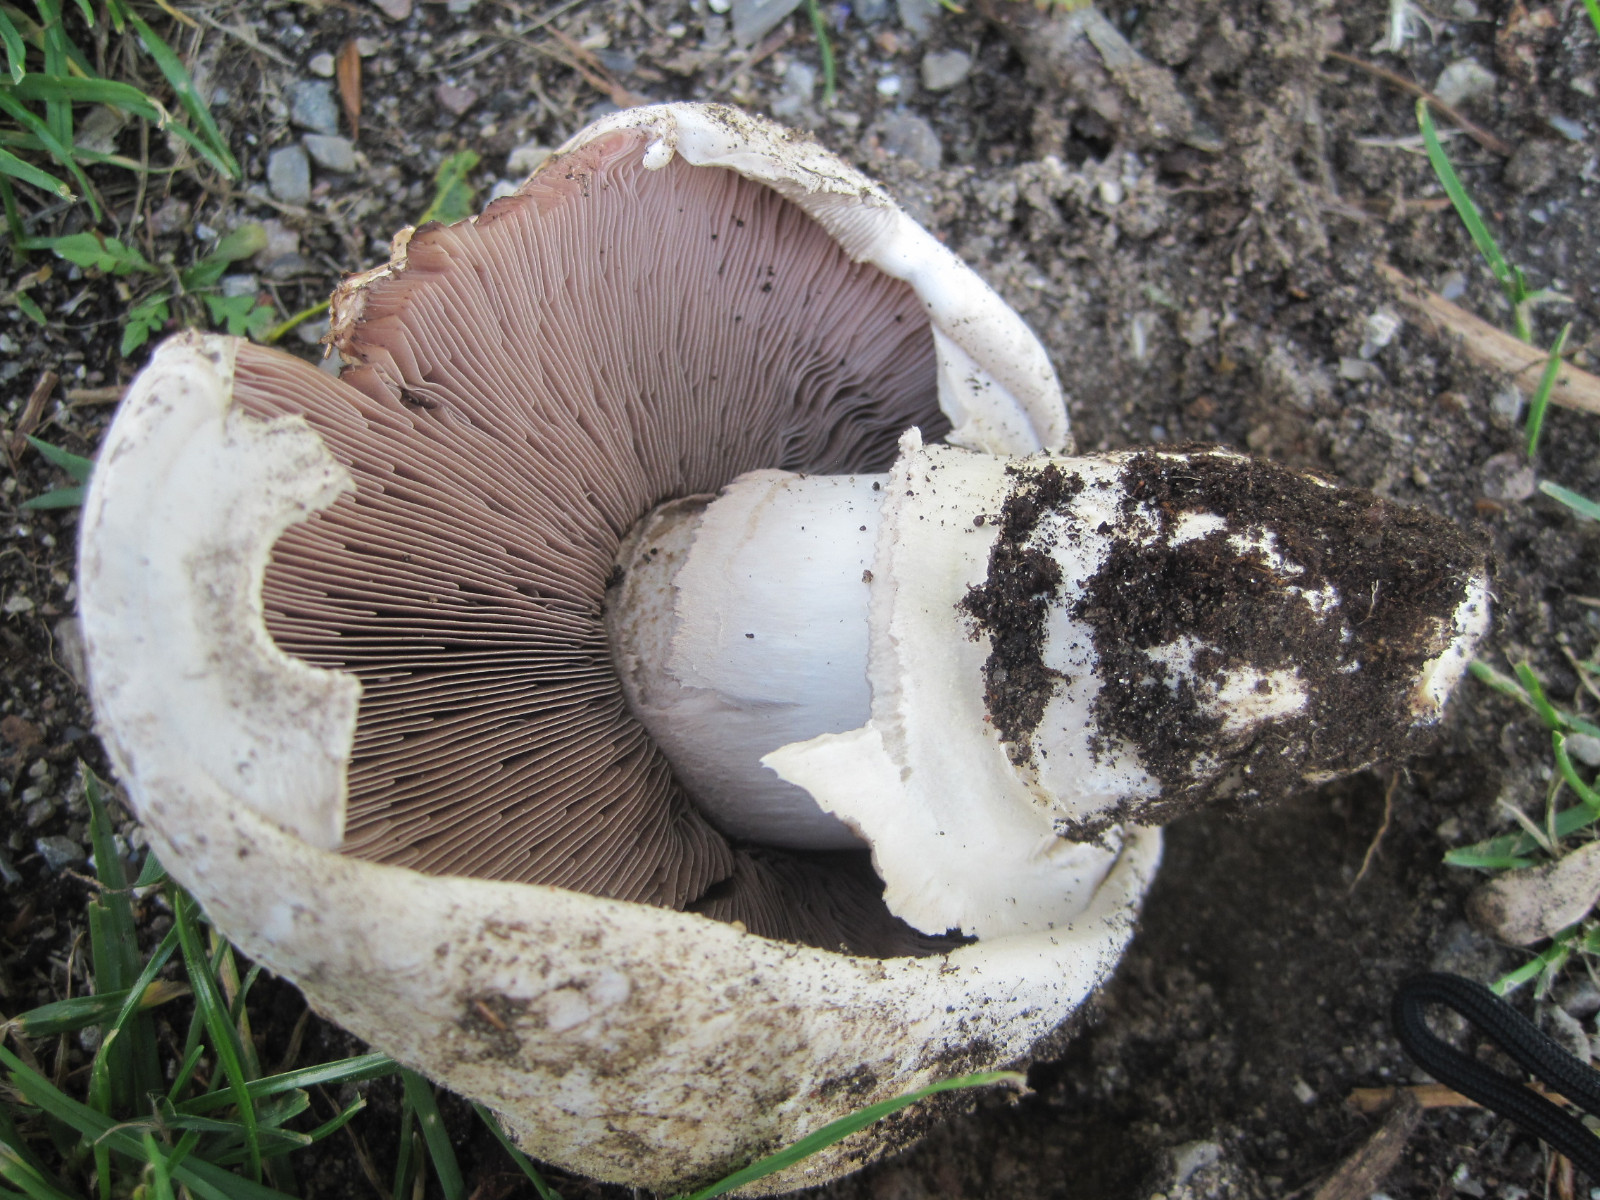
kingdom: Fungi
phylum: Basidiomycota
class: Agaricomycetes
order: Agaricales
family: Agaricaceae
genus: Agaricus
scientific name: Agaricus bitorquis
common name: vej-champignon
